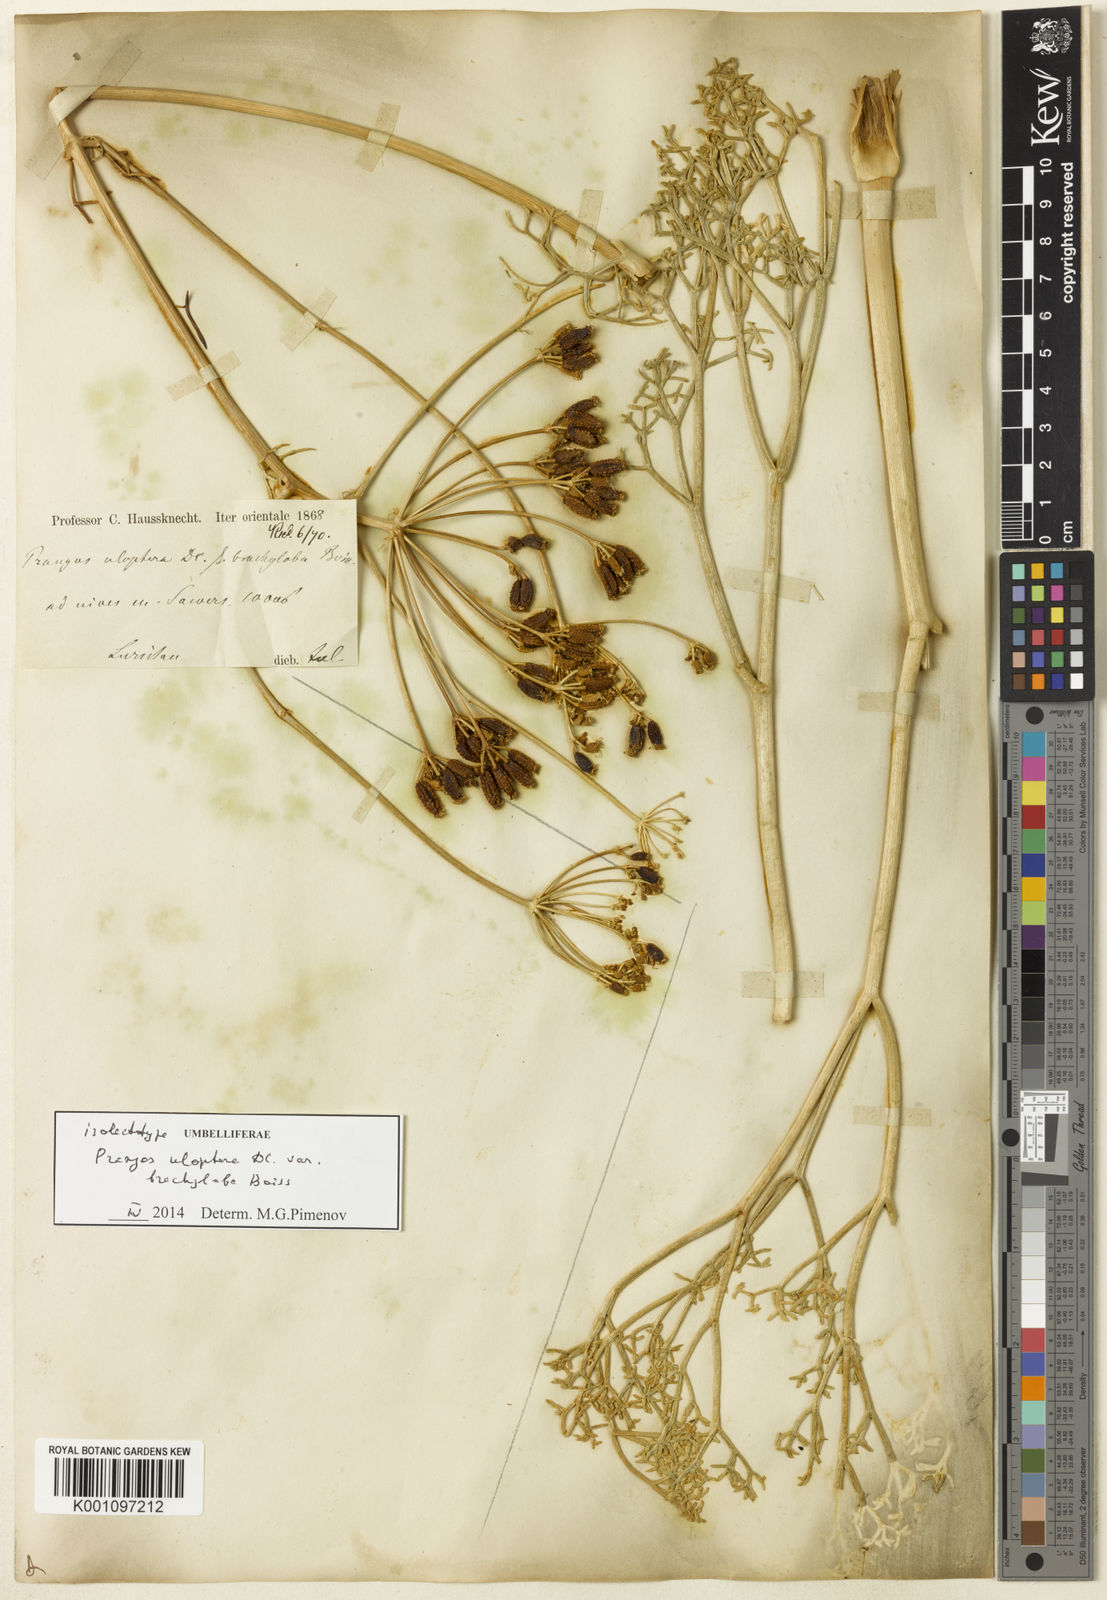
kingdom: Plantae
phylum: Tracheophyta
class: Magnoliopsida
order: Apiales
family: Apiaceae
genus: Prangos
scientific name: Prangos uloptera
